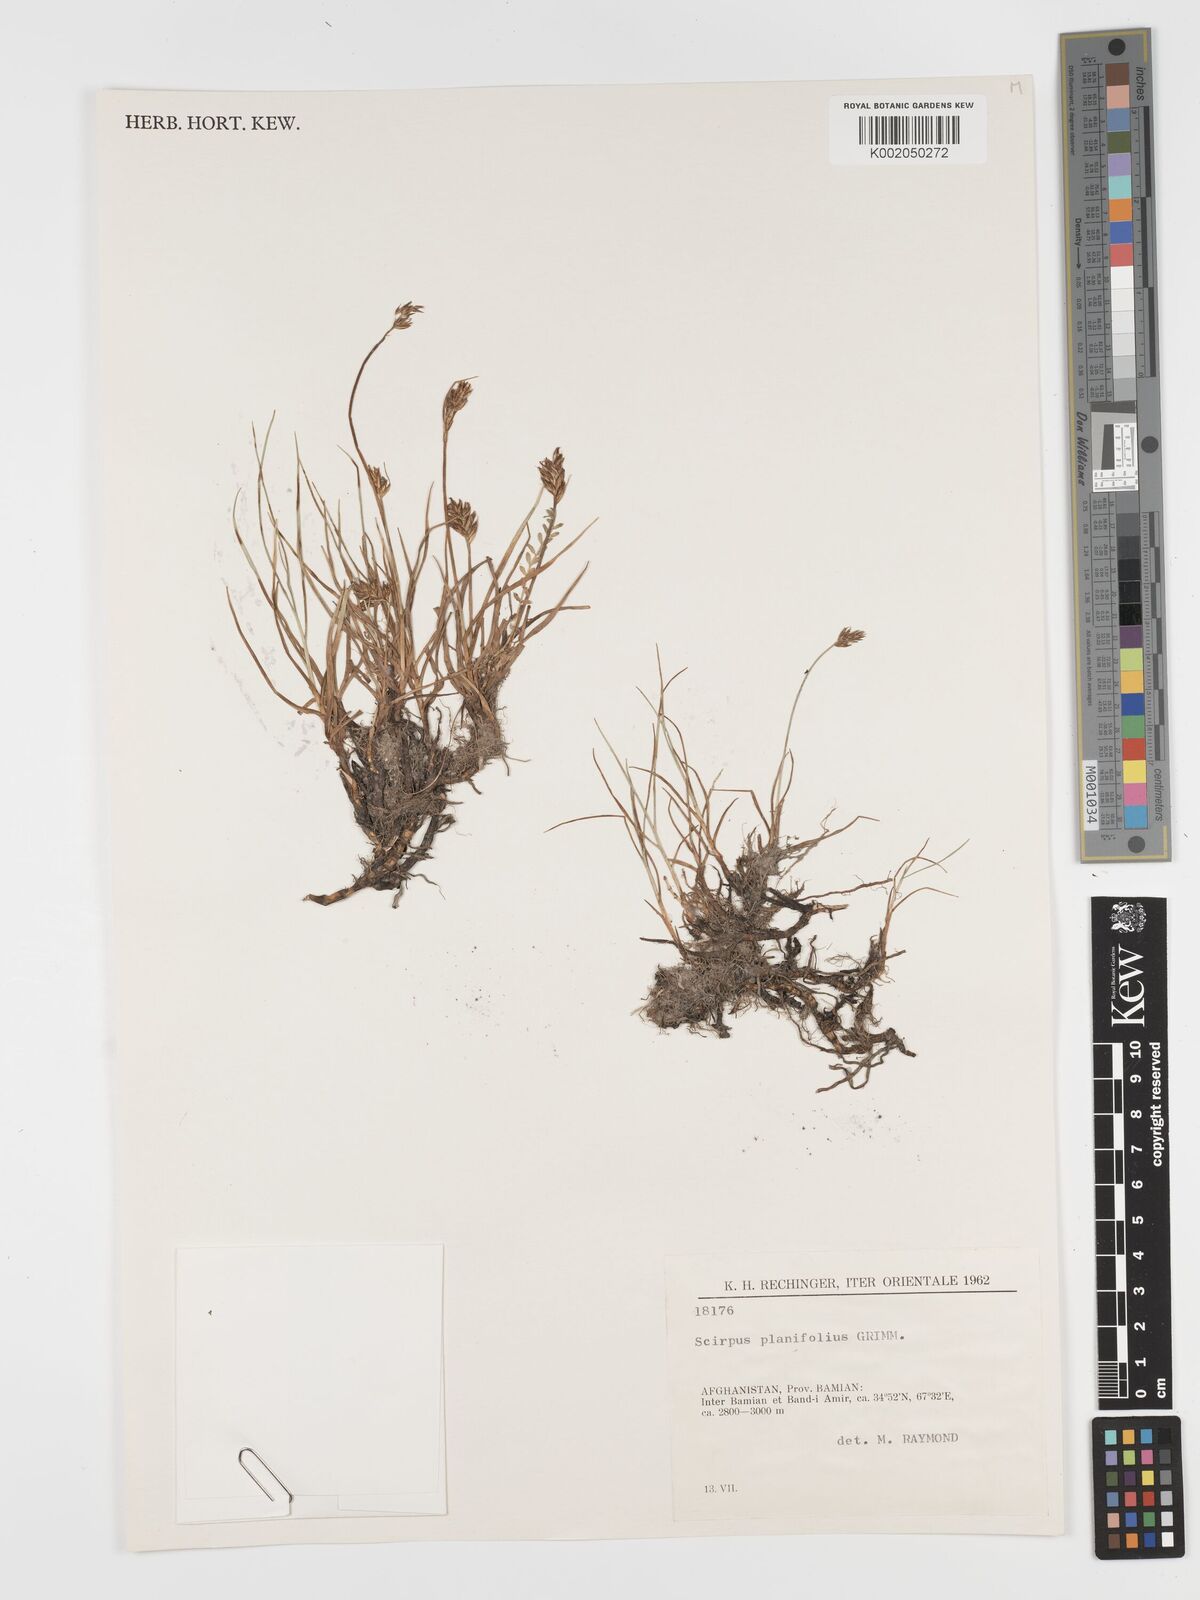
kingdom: Plantae
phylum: Tracheophyta
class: Liliopsida
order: Poales
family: Cyperaceae
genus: Blysmus
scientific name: Blysmus compressus
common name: Flat-sedge
